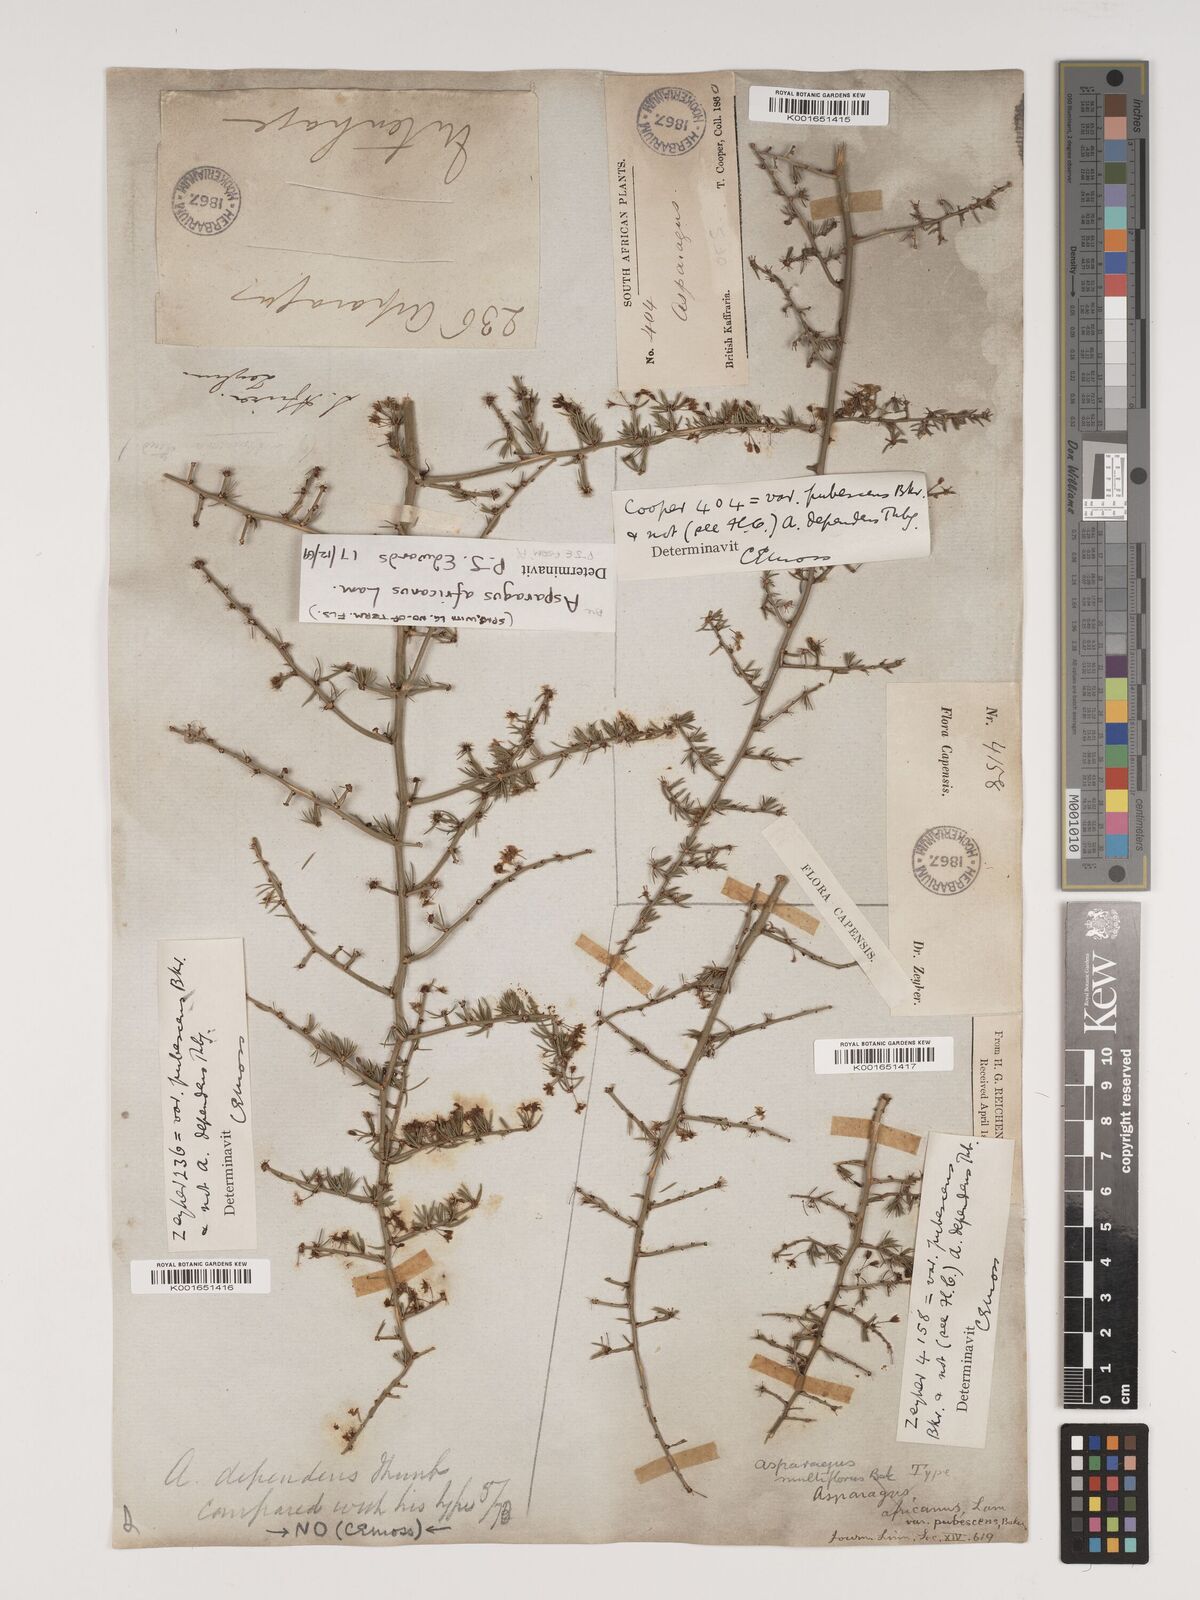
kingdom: Plantae
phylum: Tracheophyta
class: Liliopsida
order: Asparagales
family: Asparagaceae
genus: Asparagus
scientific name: Asparagus africanus
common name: Asparagus-fern
